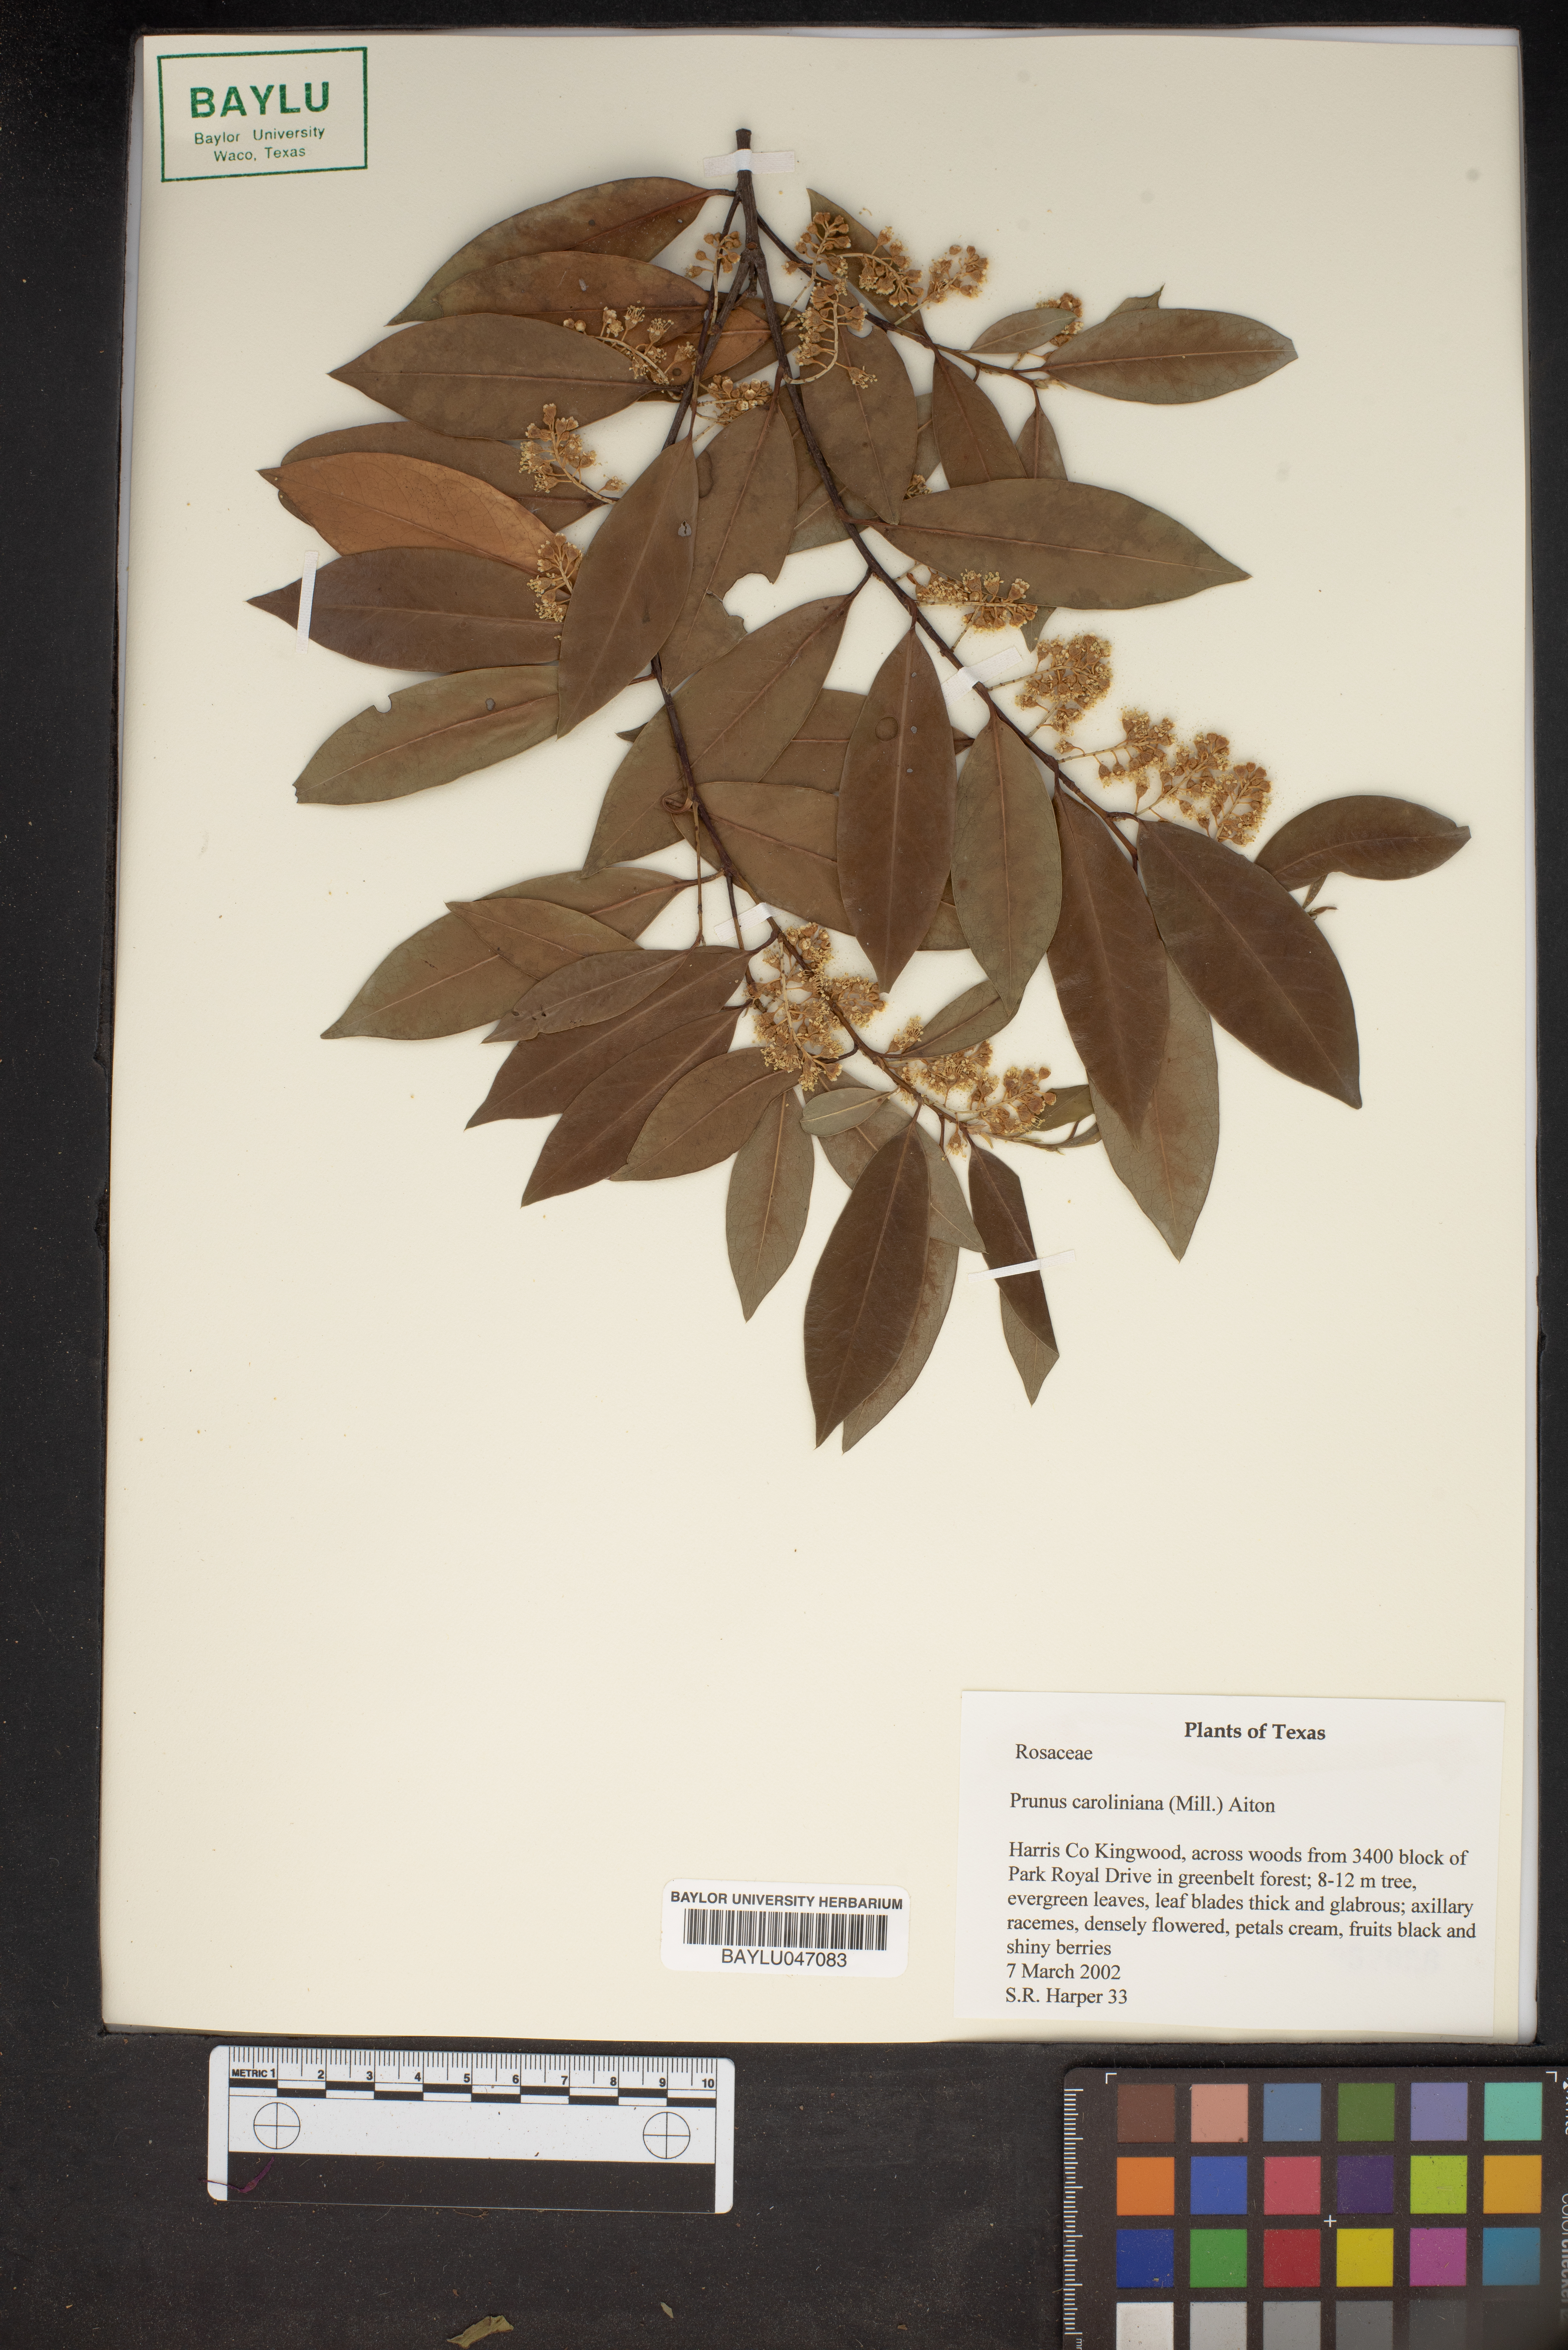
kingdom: Plantae
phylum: Tracheophyta
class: Magnoliopsida
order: Rosales
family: Rosaceae
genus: Prunus
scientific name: Prunus caroliniana
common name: Carolina laurel cherry
